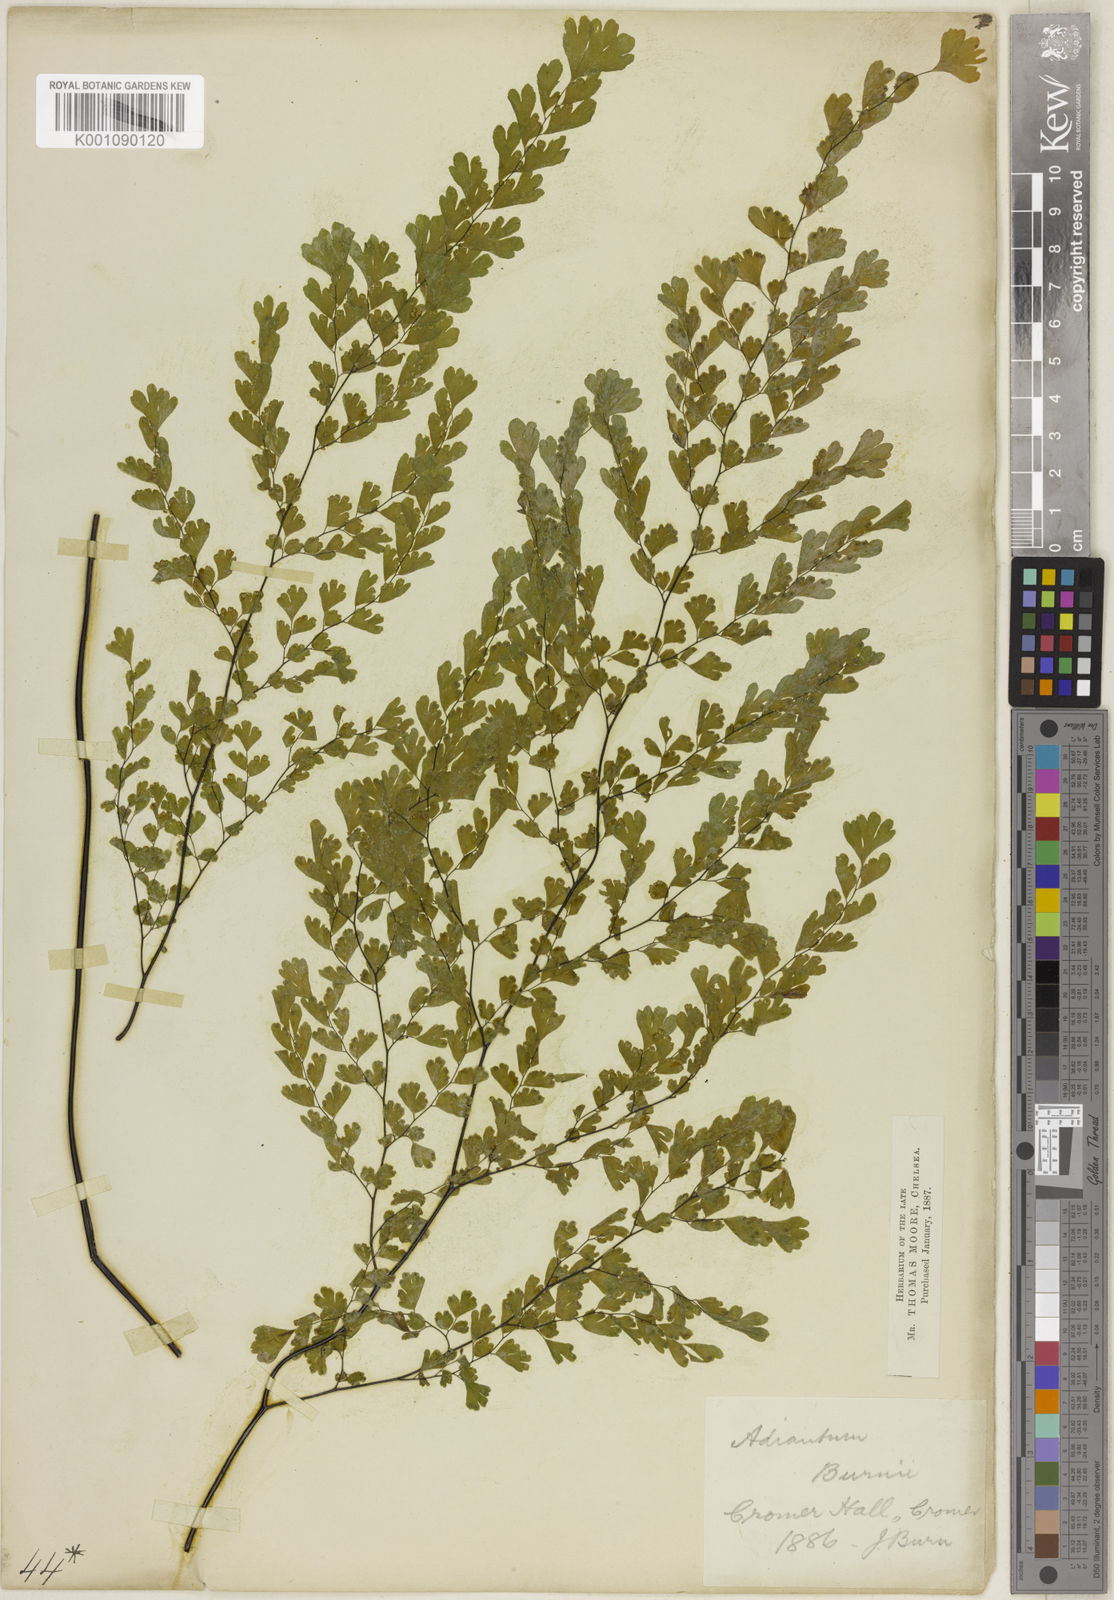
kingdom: Plantae
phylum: Tracheophyta
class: Polypodiopsida
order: Polypodiales
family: Pteridaceae
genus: Adiantum
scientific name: Adiantum raddianum
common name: Delta maidenhair fern
